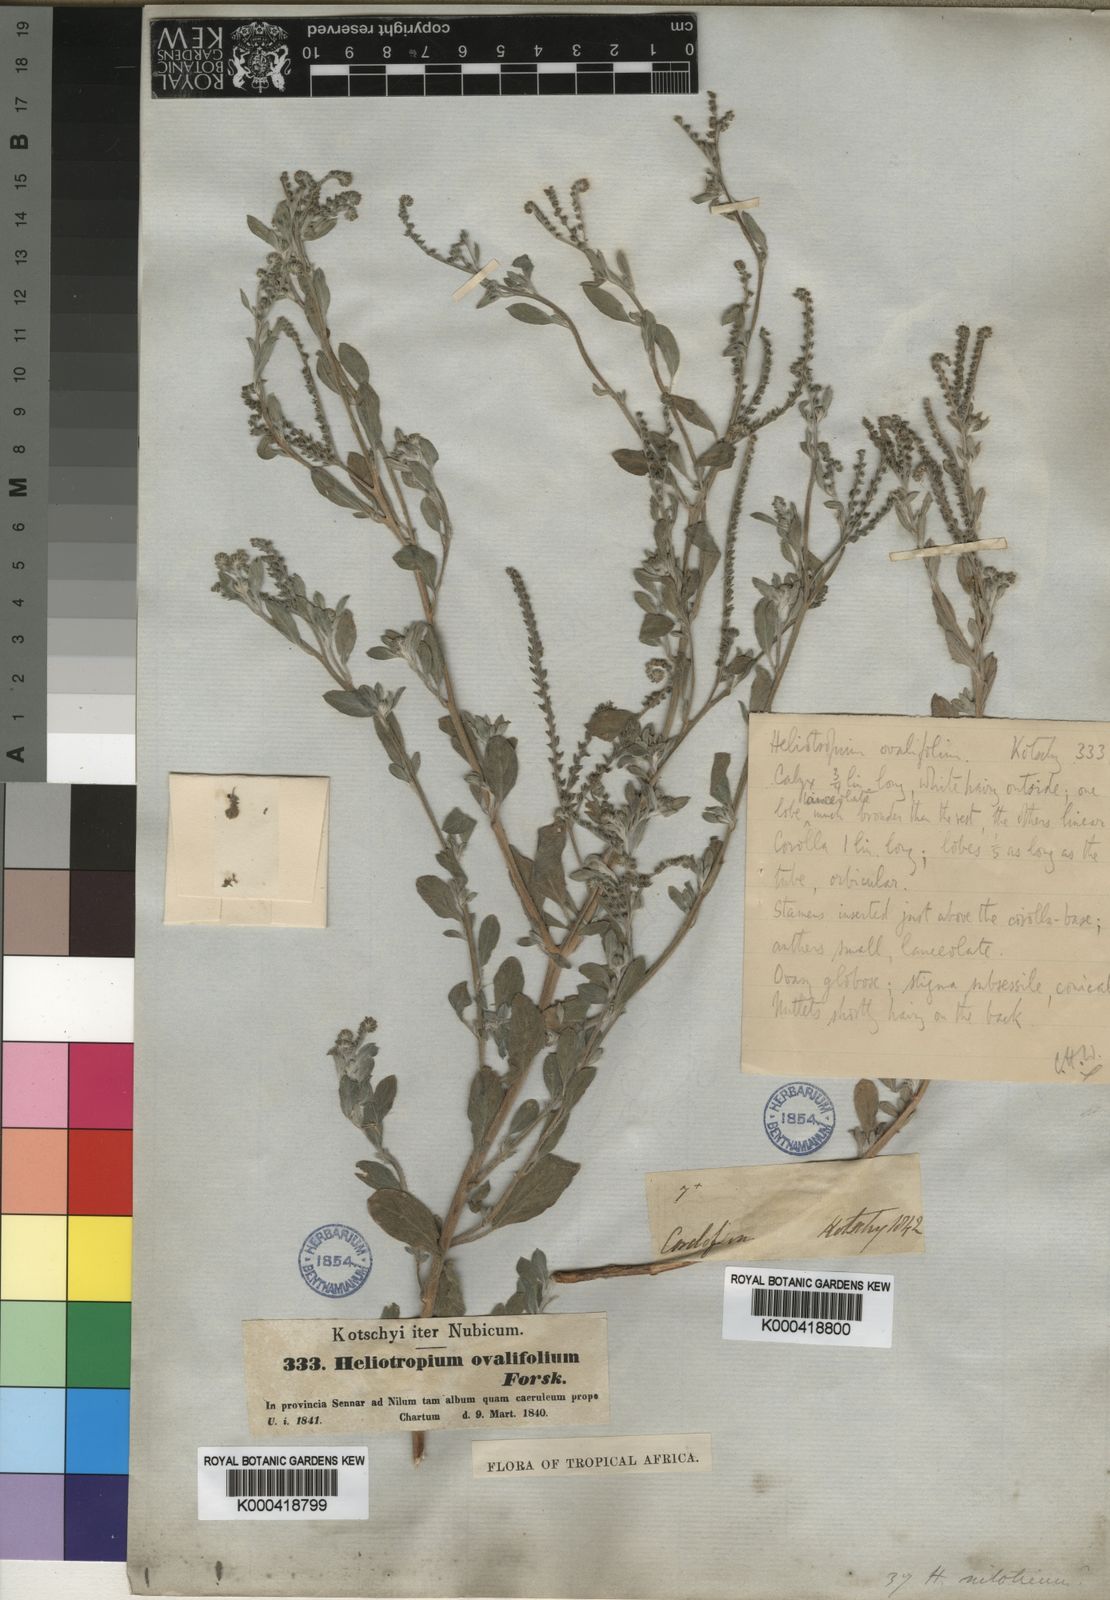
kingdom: Plantae
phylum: Tracheophyta
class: Magnoliopsida
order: Boraginales
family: Heliotropiaceae
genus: Euploca
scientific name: Euploca ovalifolia
